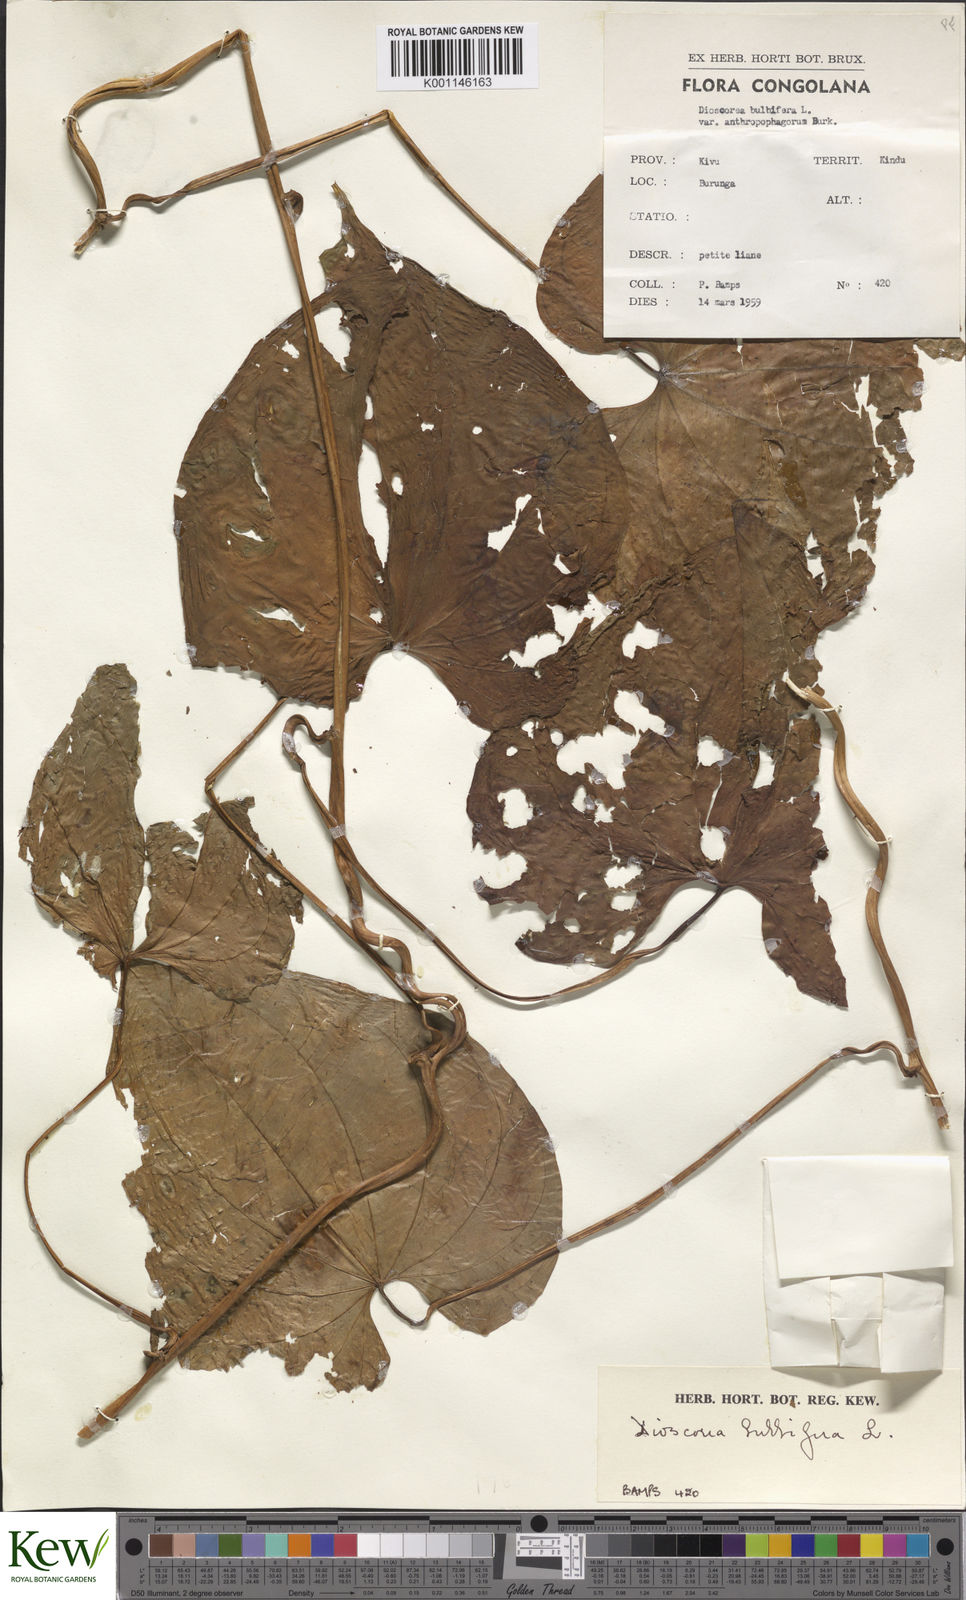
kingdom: Plantae
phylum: Tracheophyta
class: Liliopsida
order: Dioscoreales
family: Dioscoreaceae
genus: Dioscorea
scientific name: Dioscorea bulbifera
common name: Air yam
